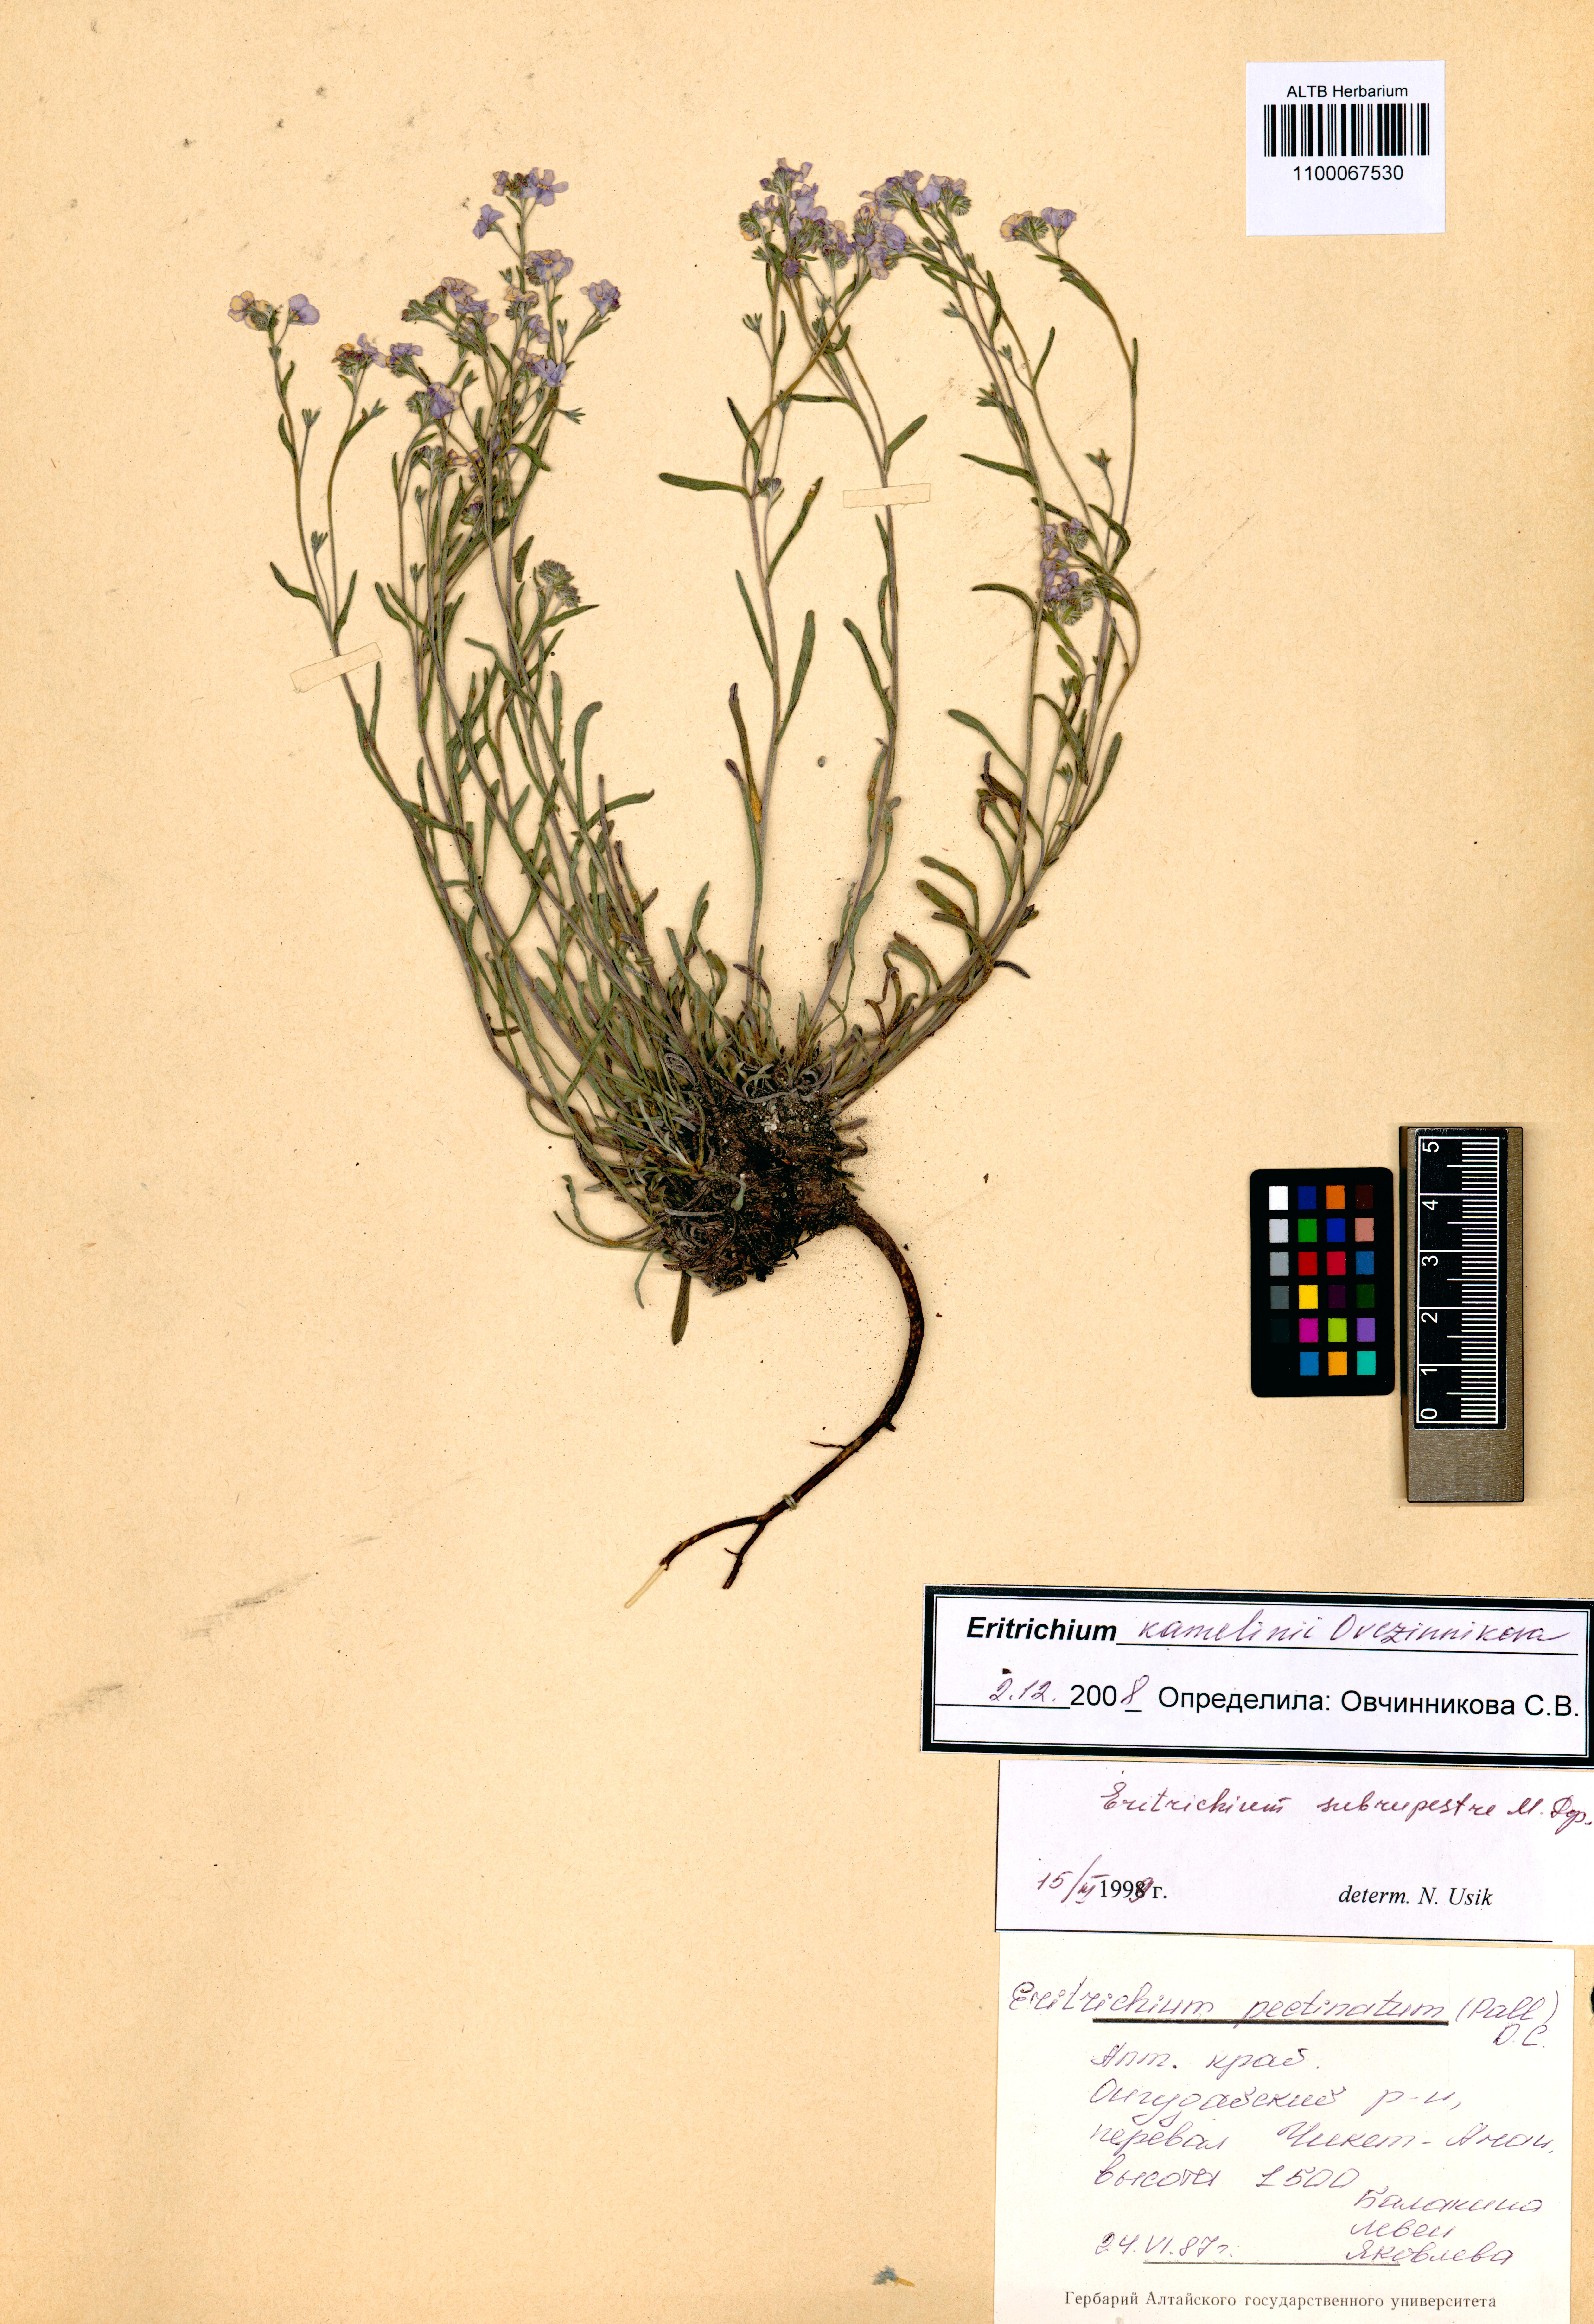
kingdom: Plantae
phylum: Tracheophyta
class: Magnoliopsida
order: Boraginales
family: Boraginaceae
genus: Eritrichium
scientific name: Eritrichium kamelinii
